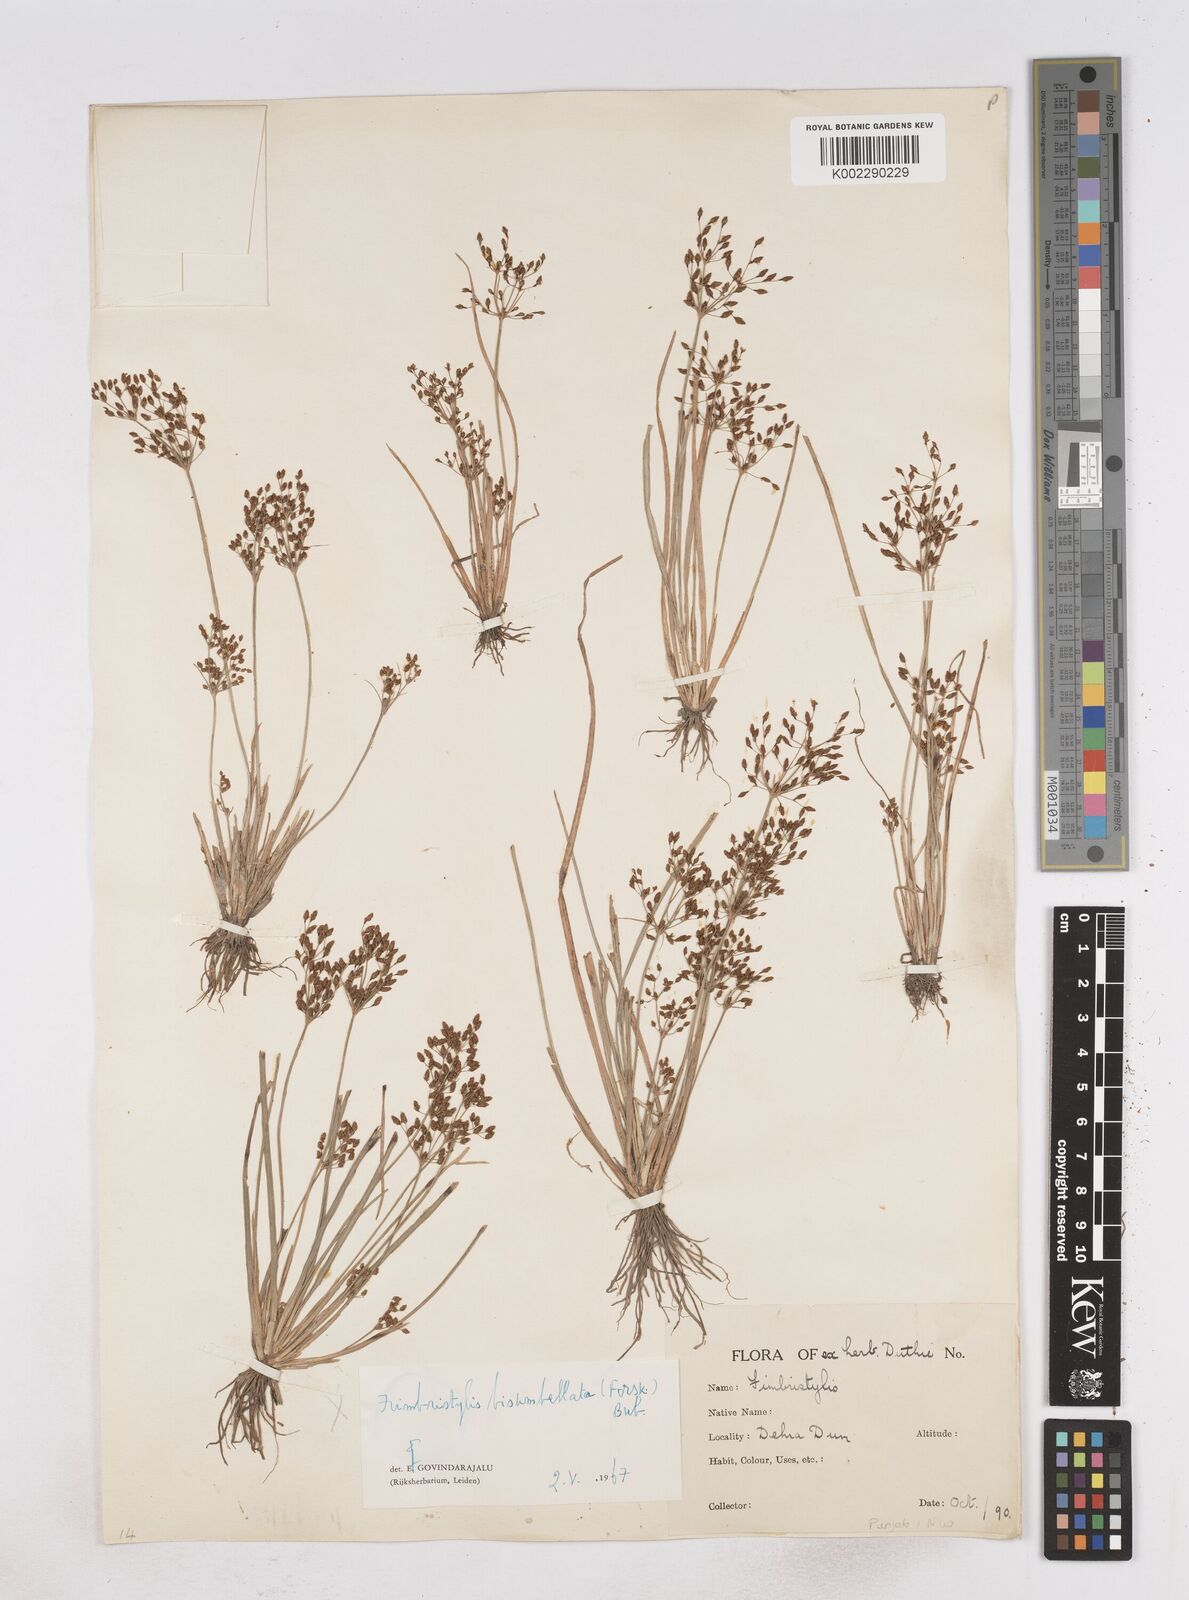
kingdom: Plantae
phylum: Tracheophyta
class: Liliopsida
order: Poales
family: Cyperaceae
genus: Fimbristylis
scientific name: Fimbristylis
